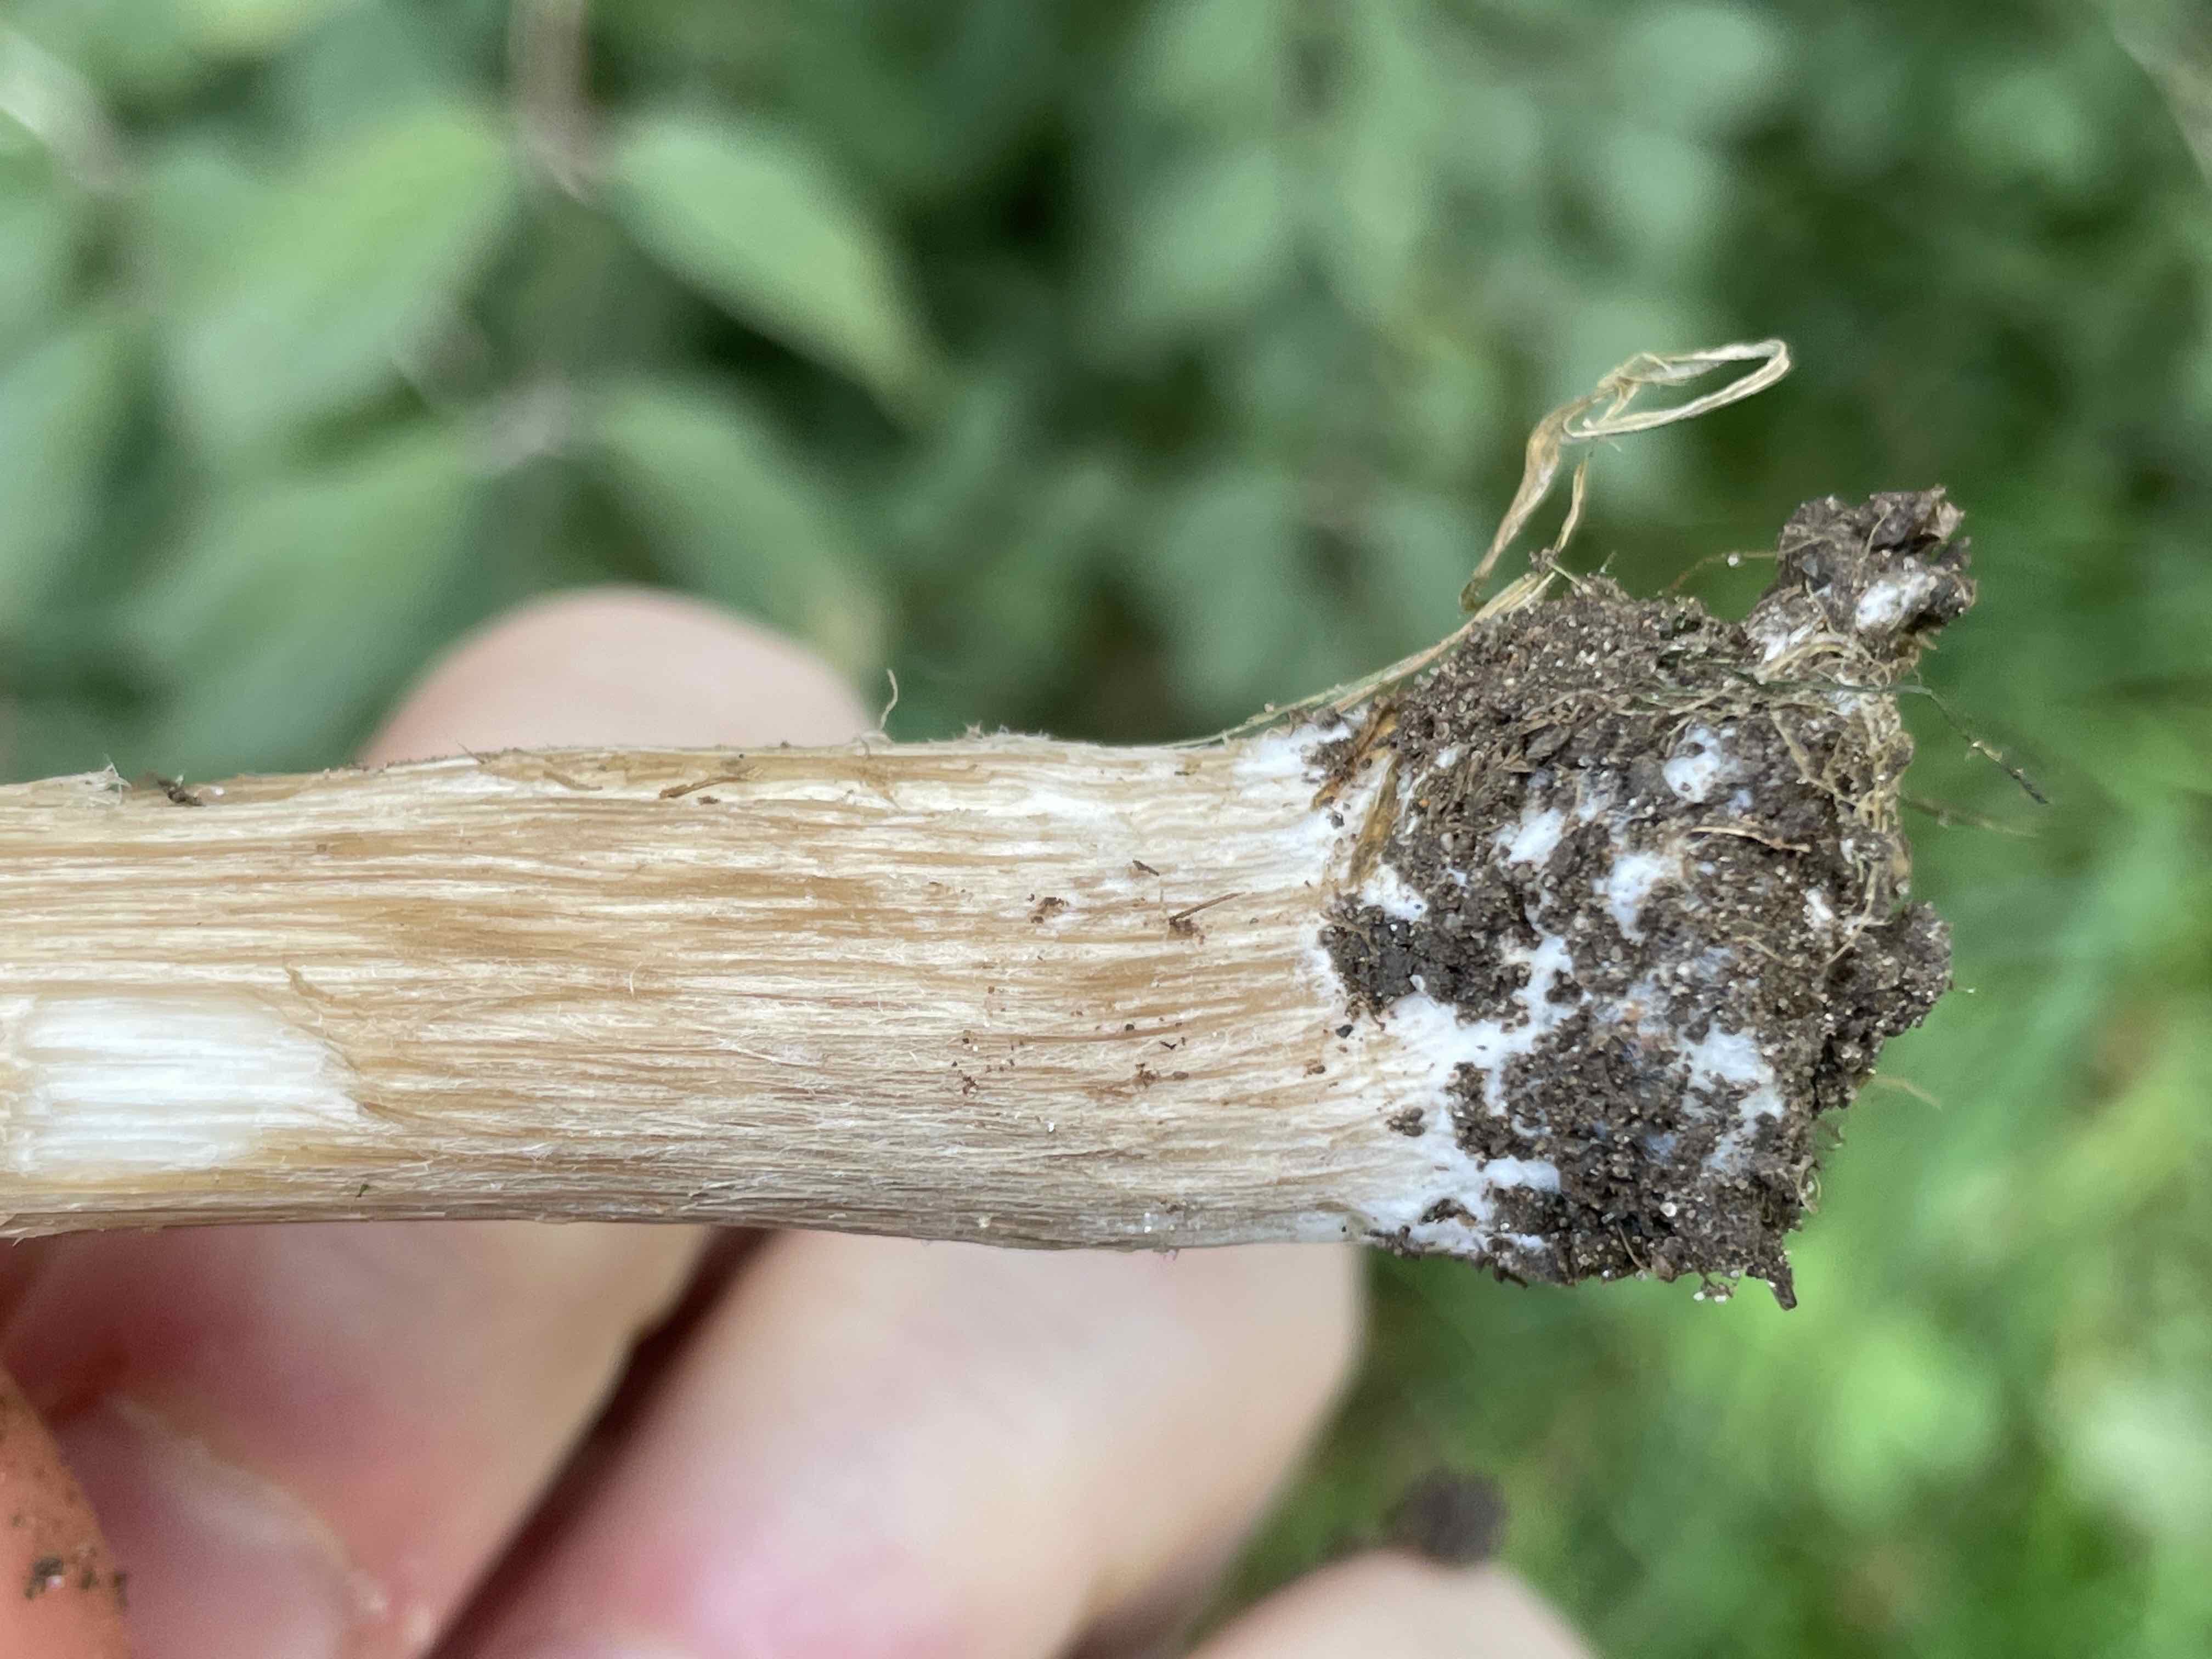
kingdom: Fungi
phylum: Basidiomycota
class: Agaricomycetes
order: Agaricales
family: Tricholomataceae
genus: Melanoleuca
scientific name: Melanoleuca
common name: munkehat
